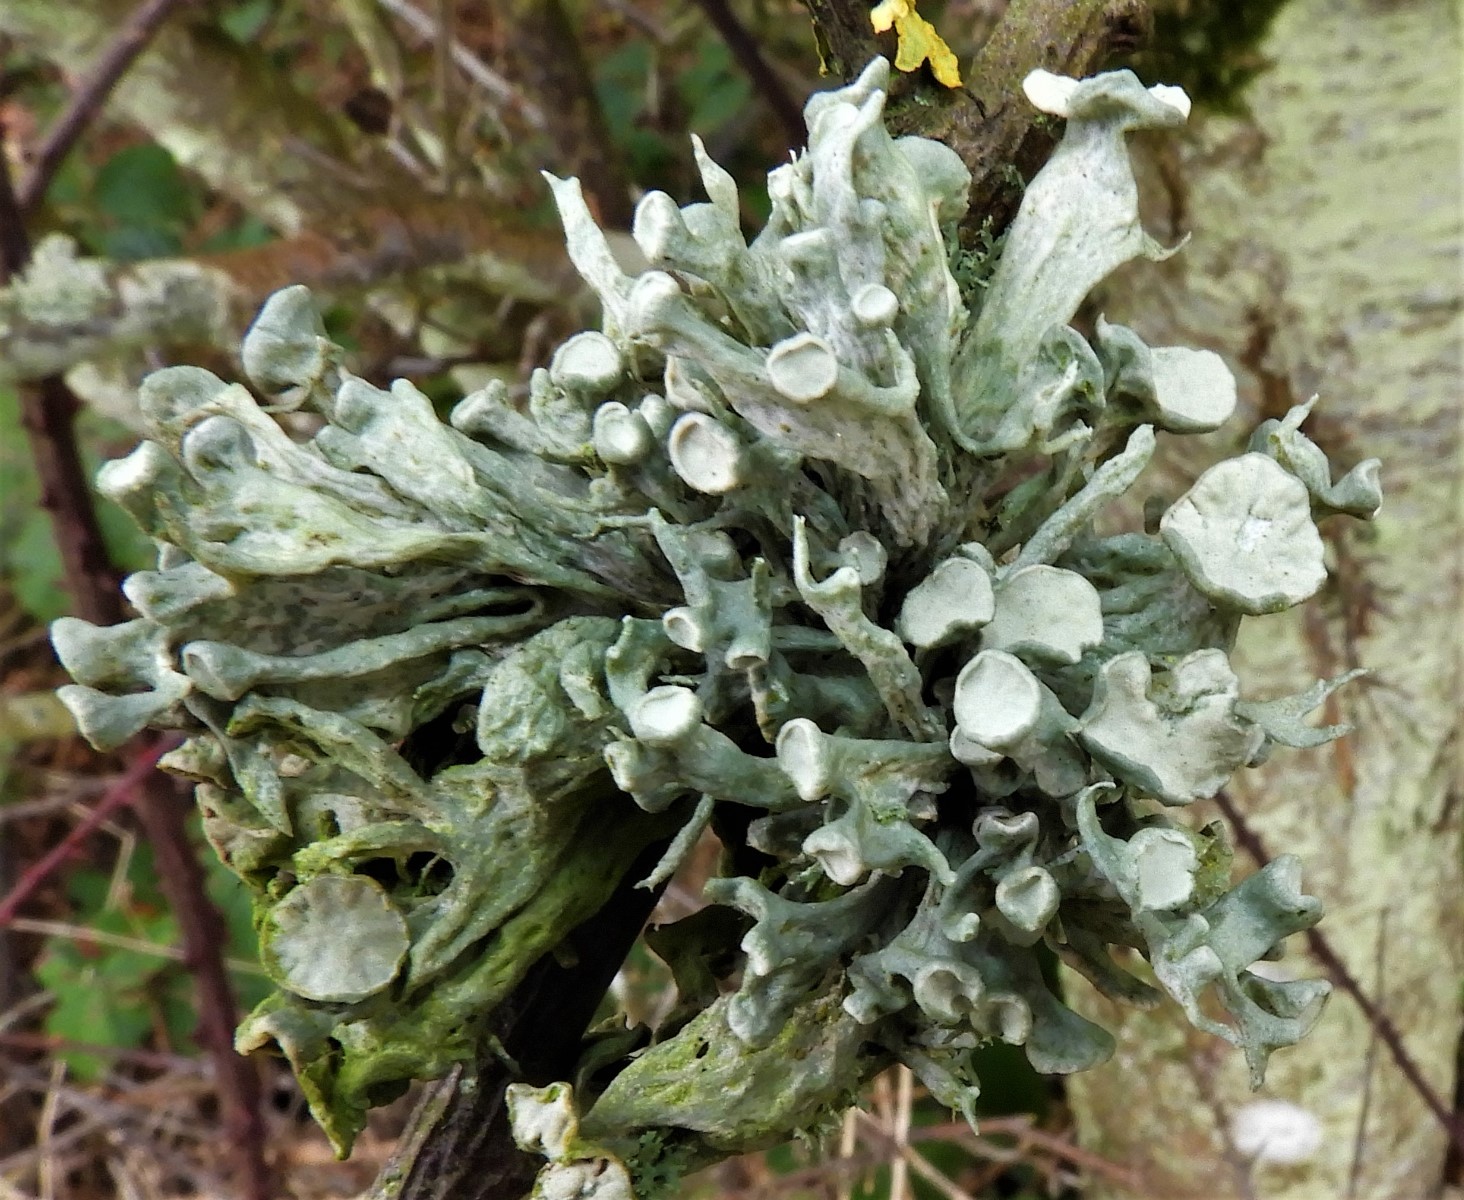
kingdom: Fungi
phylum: Ascomycota
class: Lecanoromycetes
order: Lecanorales
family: Ramalinaceae
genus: Ramalina
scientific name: Ramalina fastigiata
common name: tue-grenlav
